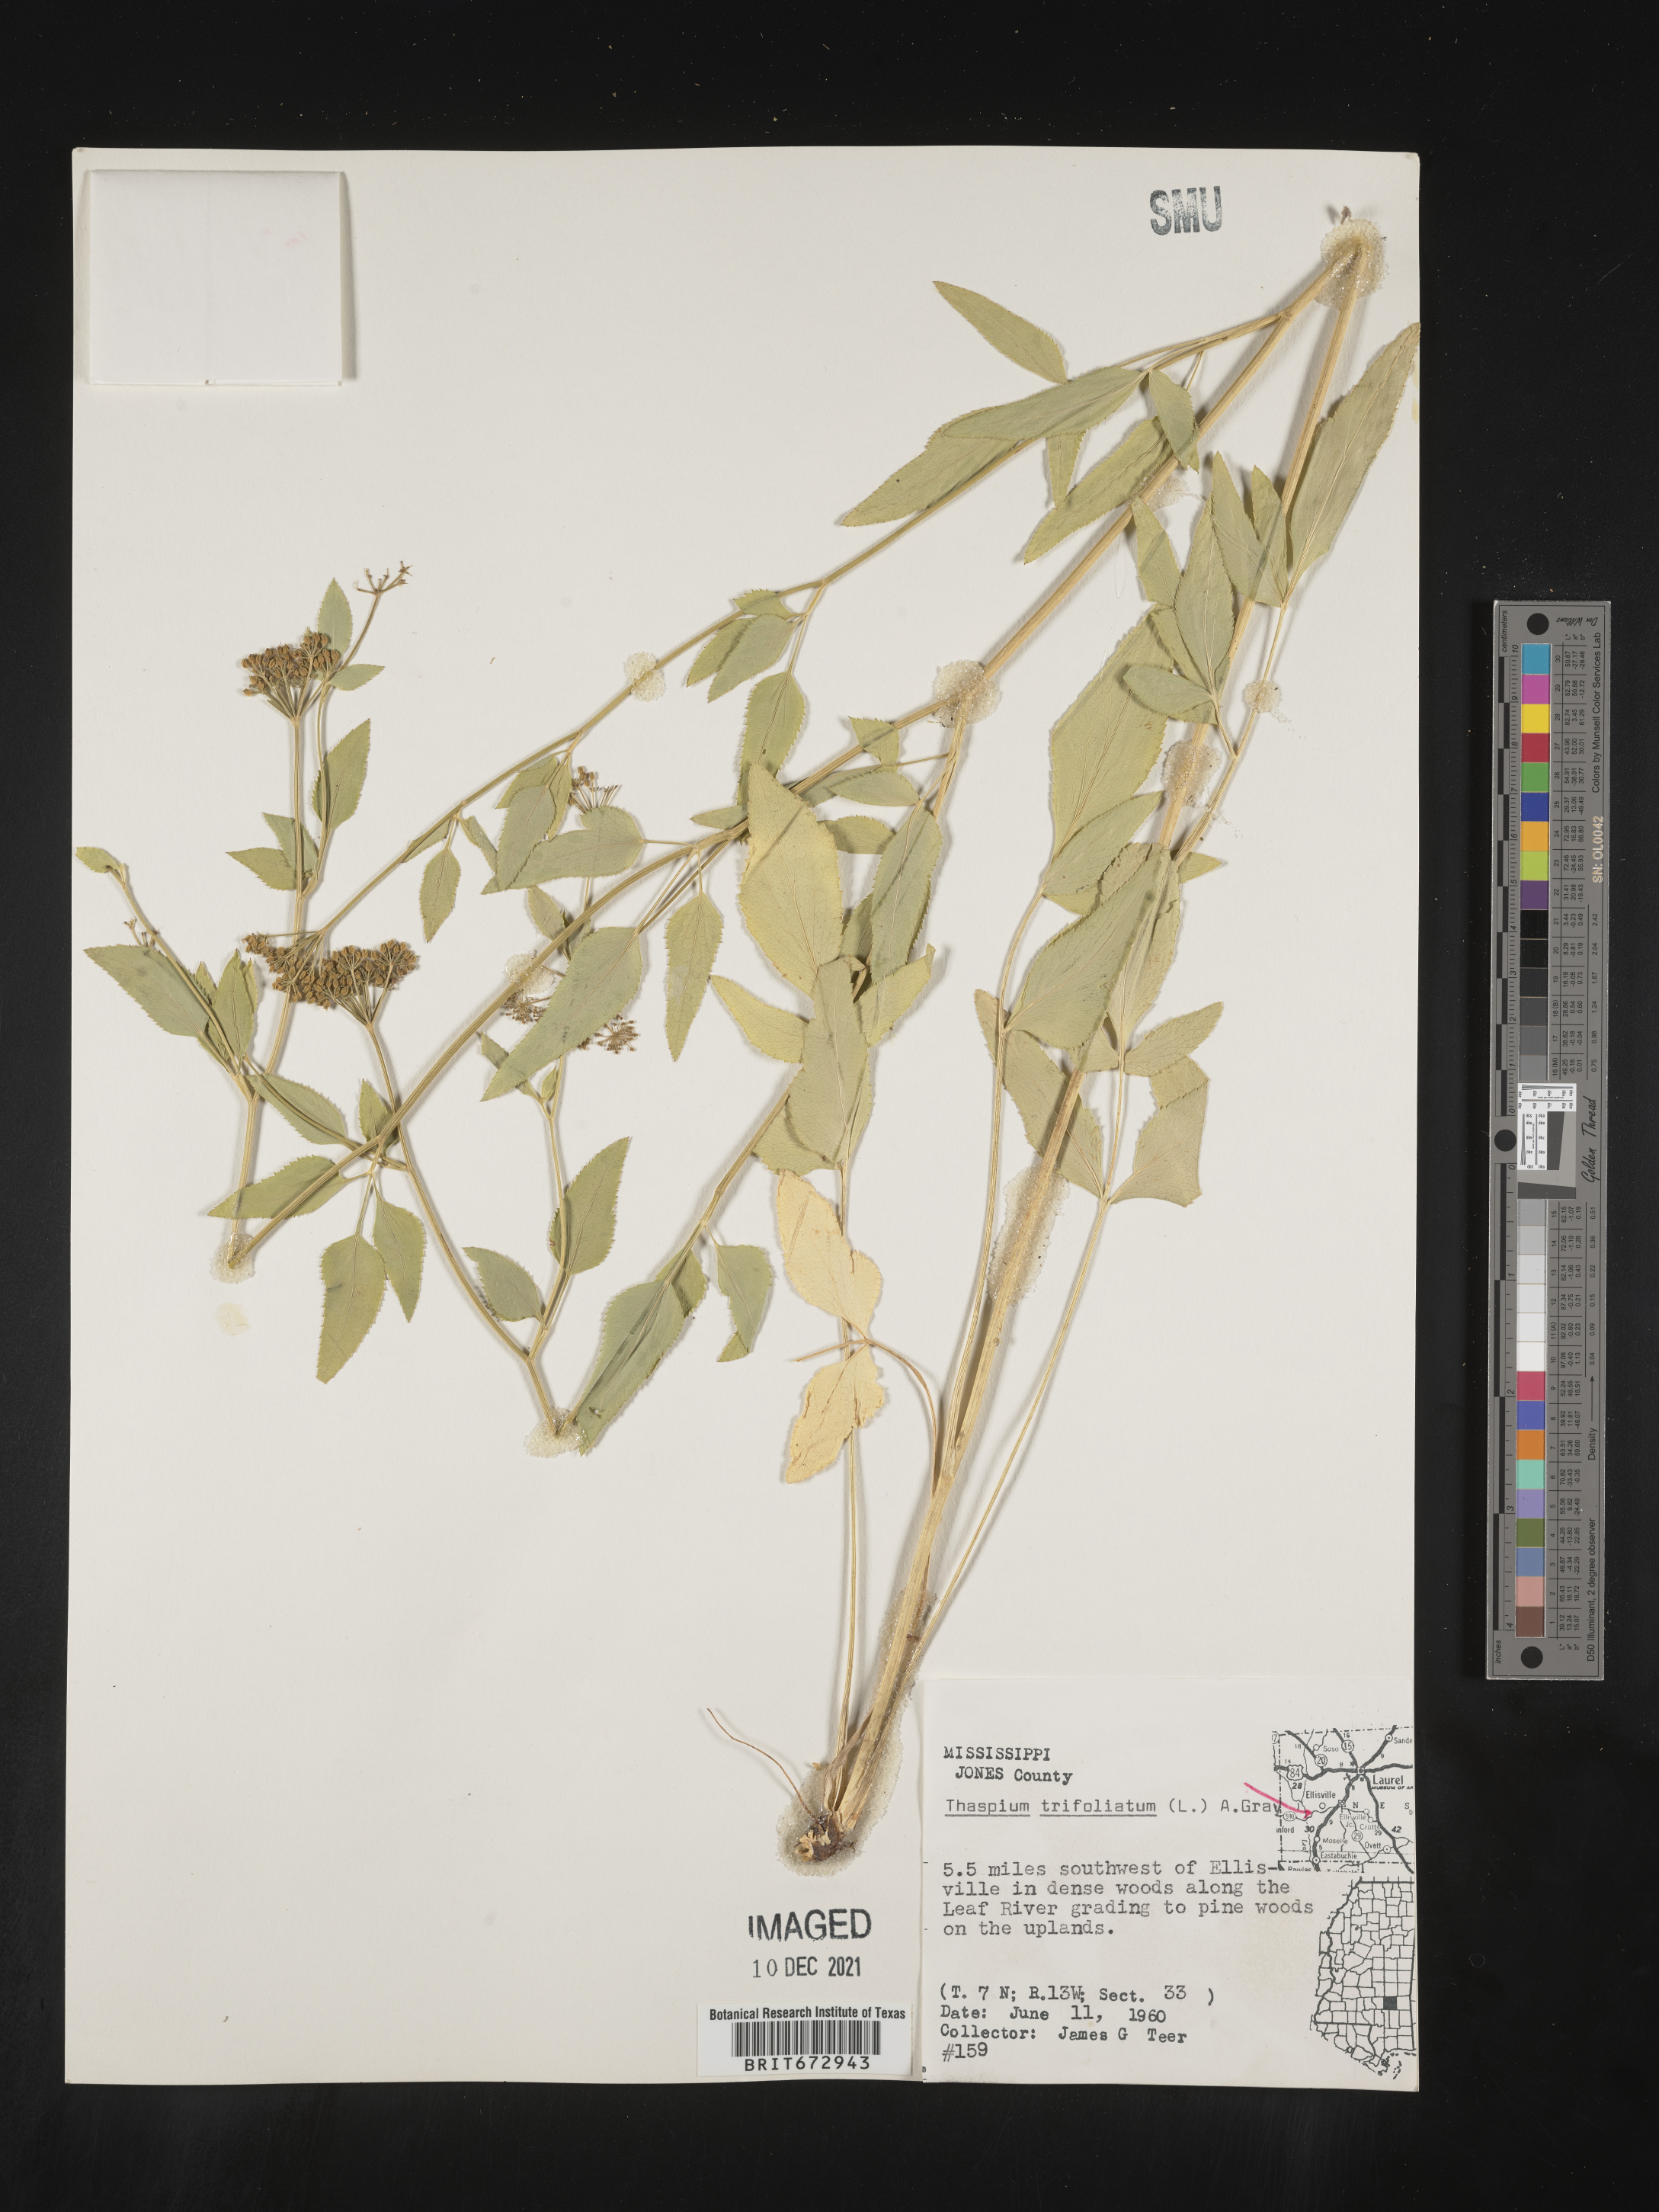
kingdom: Plantae
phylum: Tracheophyta
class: Magnoliopsida
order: Apiales
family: Apiaceae
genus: Thaspium
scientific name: Thaspium
